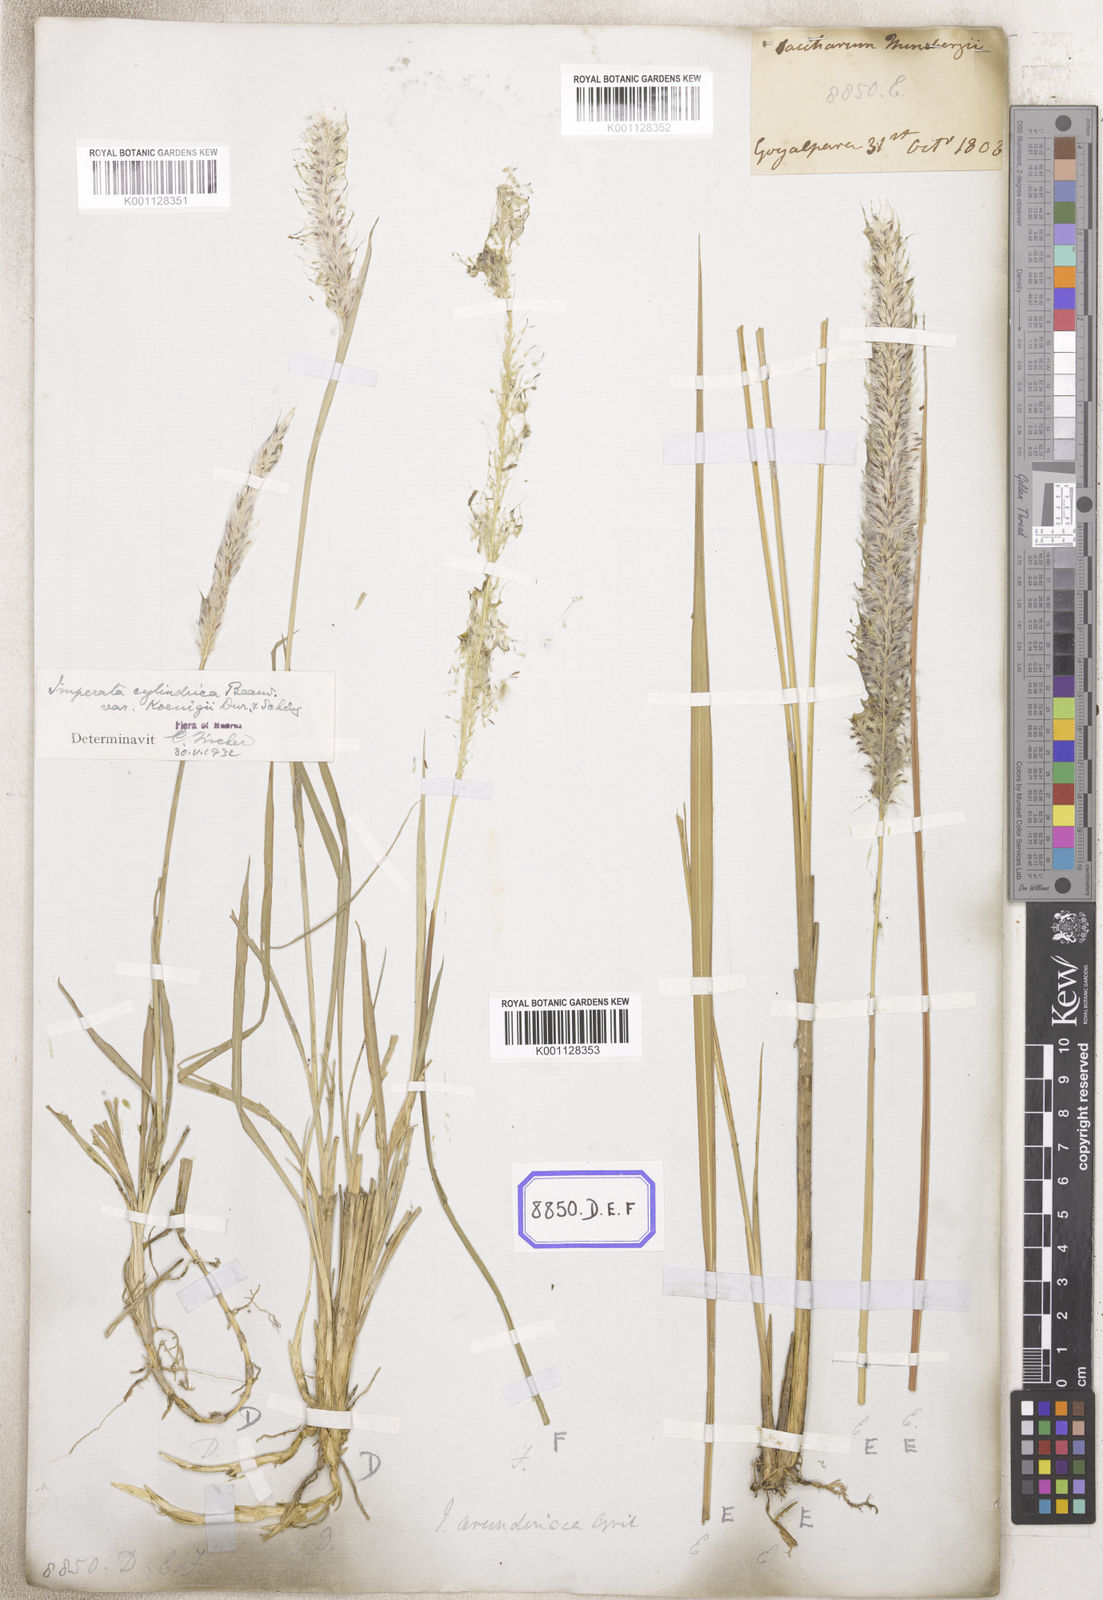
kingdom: Plantae
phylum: Tracheophyta
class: Liliopsida
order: Poales
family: Poaceae
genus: Imperata
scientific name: Imperata cylindrica
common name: Cogongrass
